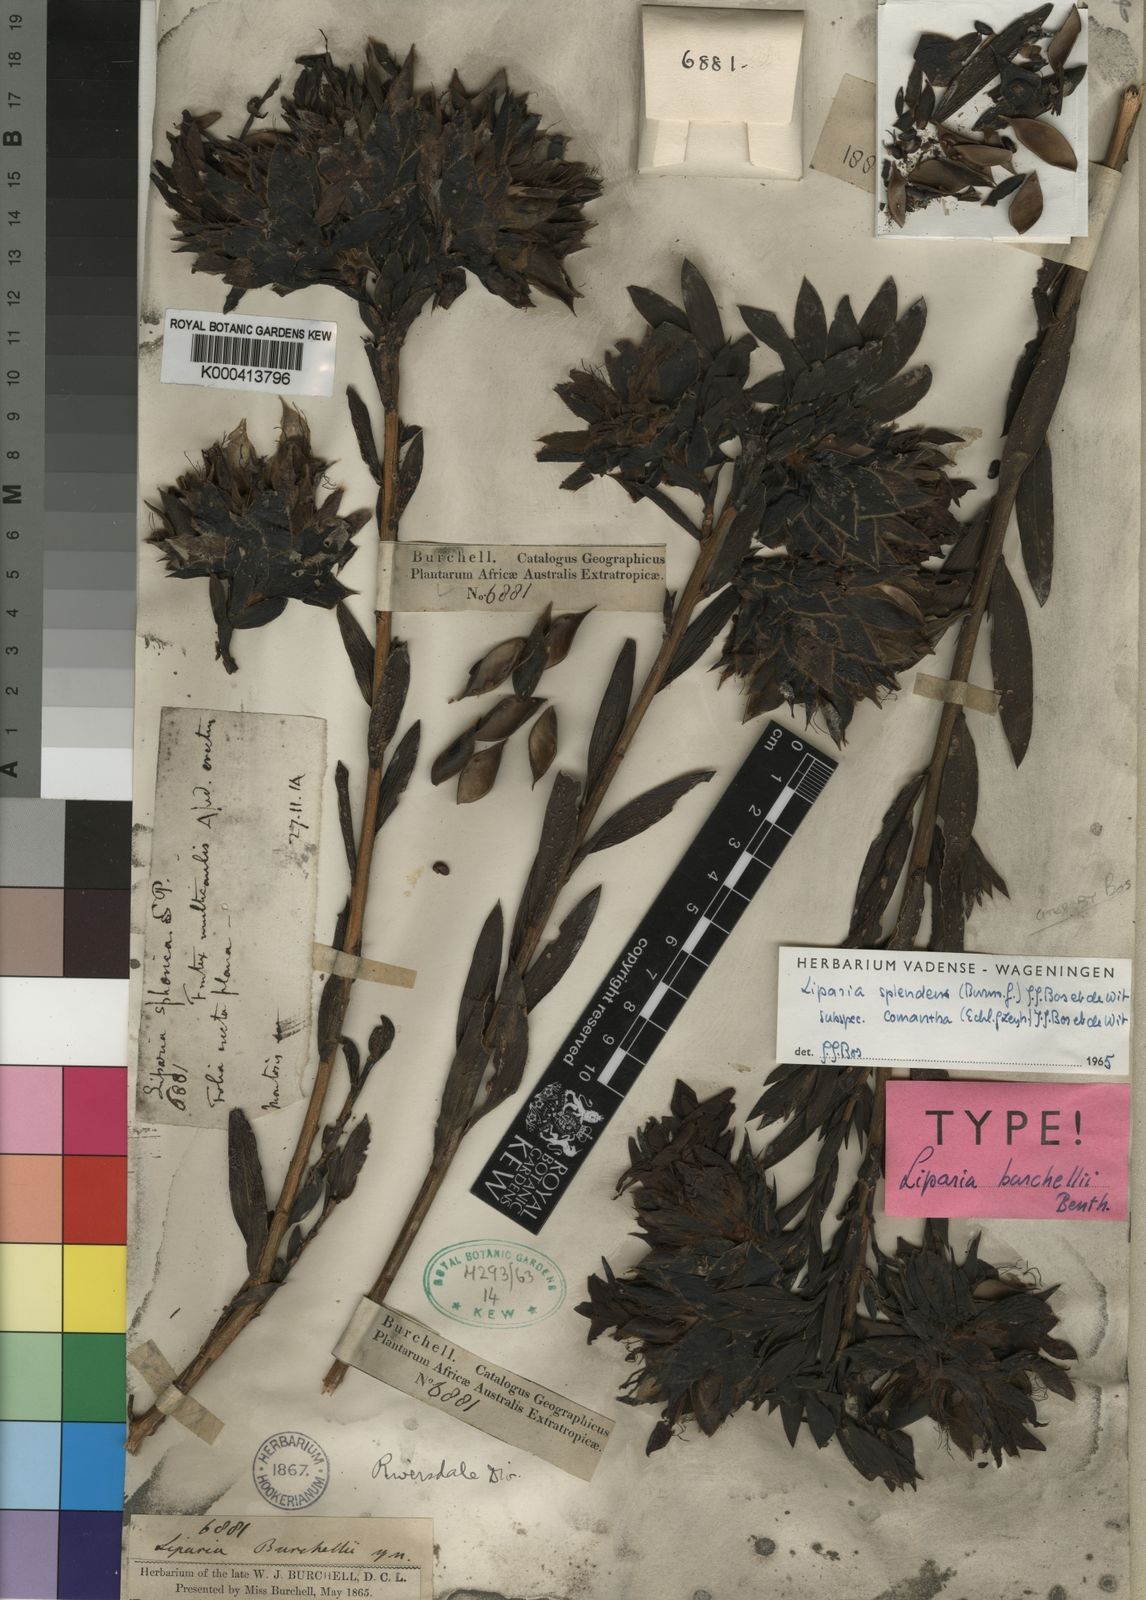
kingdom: Plantae
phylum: Tracheophyta
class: Magnoliopsida
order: Fabales
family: Fabaceae
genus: Liparia
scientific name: Liparia splendens
